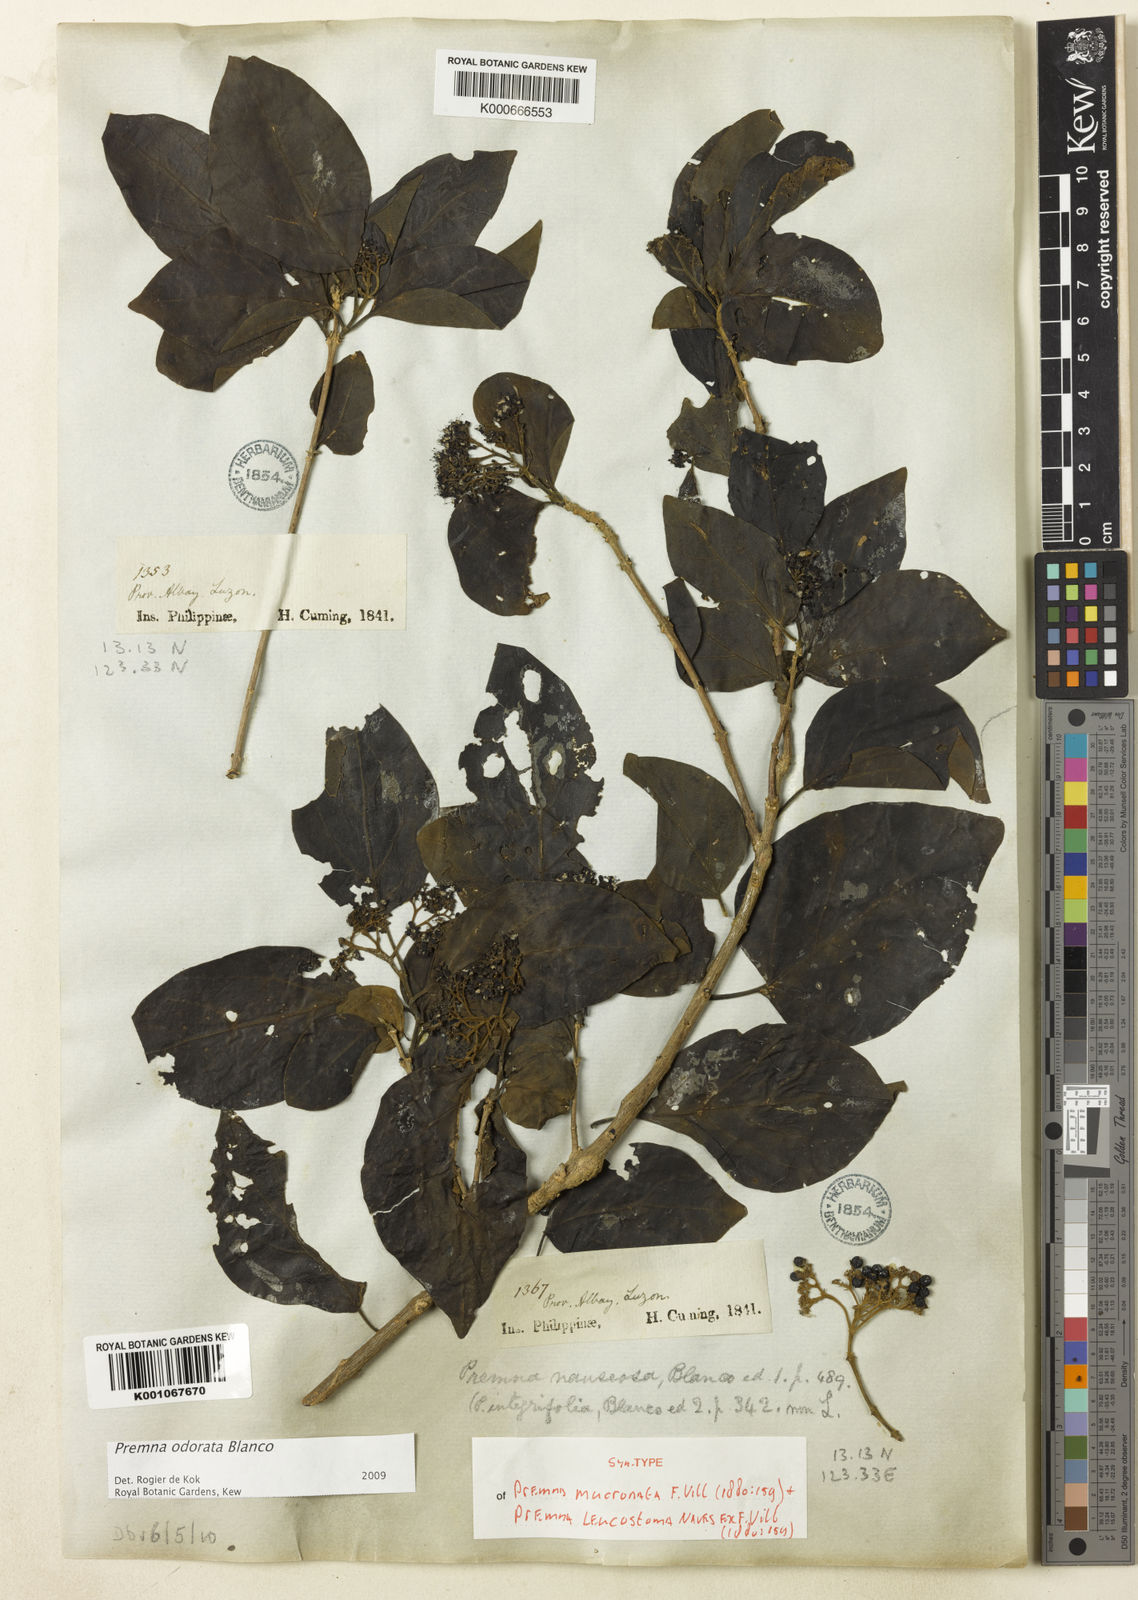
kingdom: Plantae
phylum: Tracheophyta
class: Magnoliopsida
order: Lamiales
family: Lamiaceae
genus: Premna
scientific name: Premna odorata
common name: Fragrant premna
